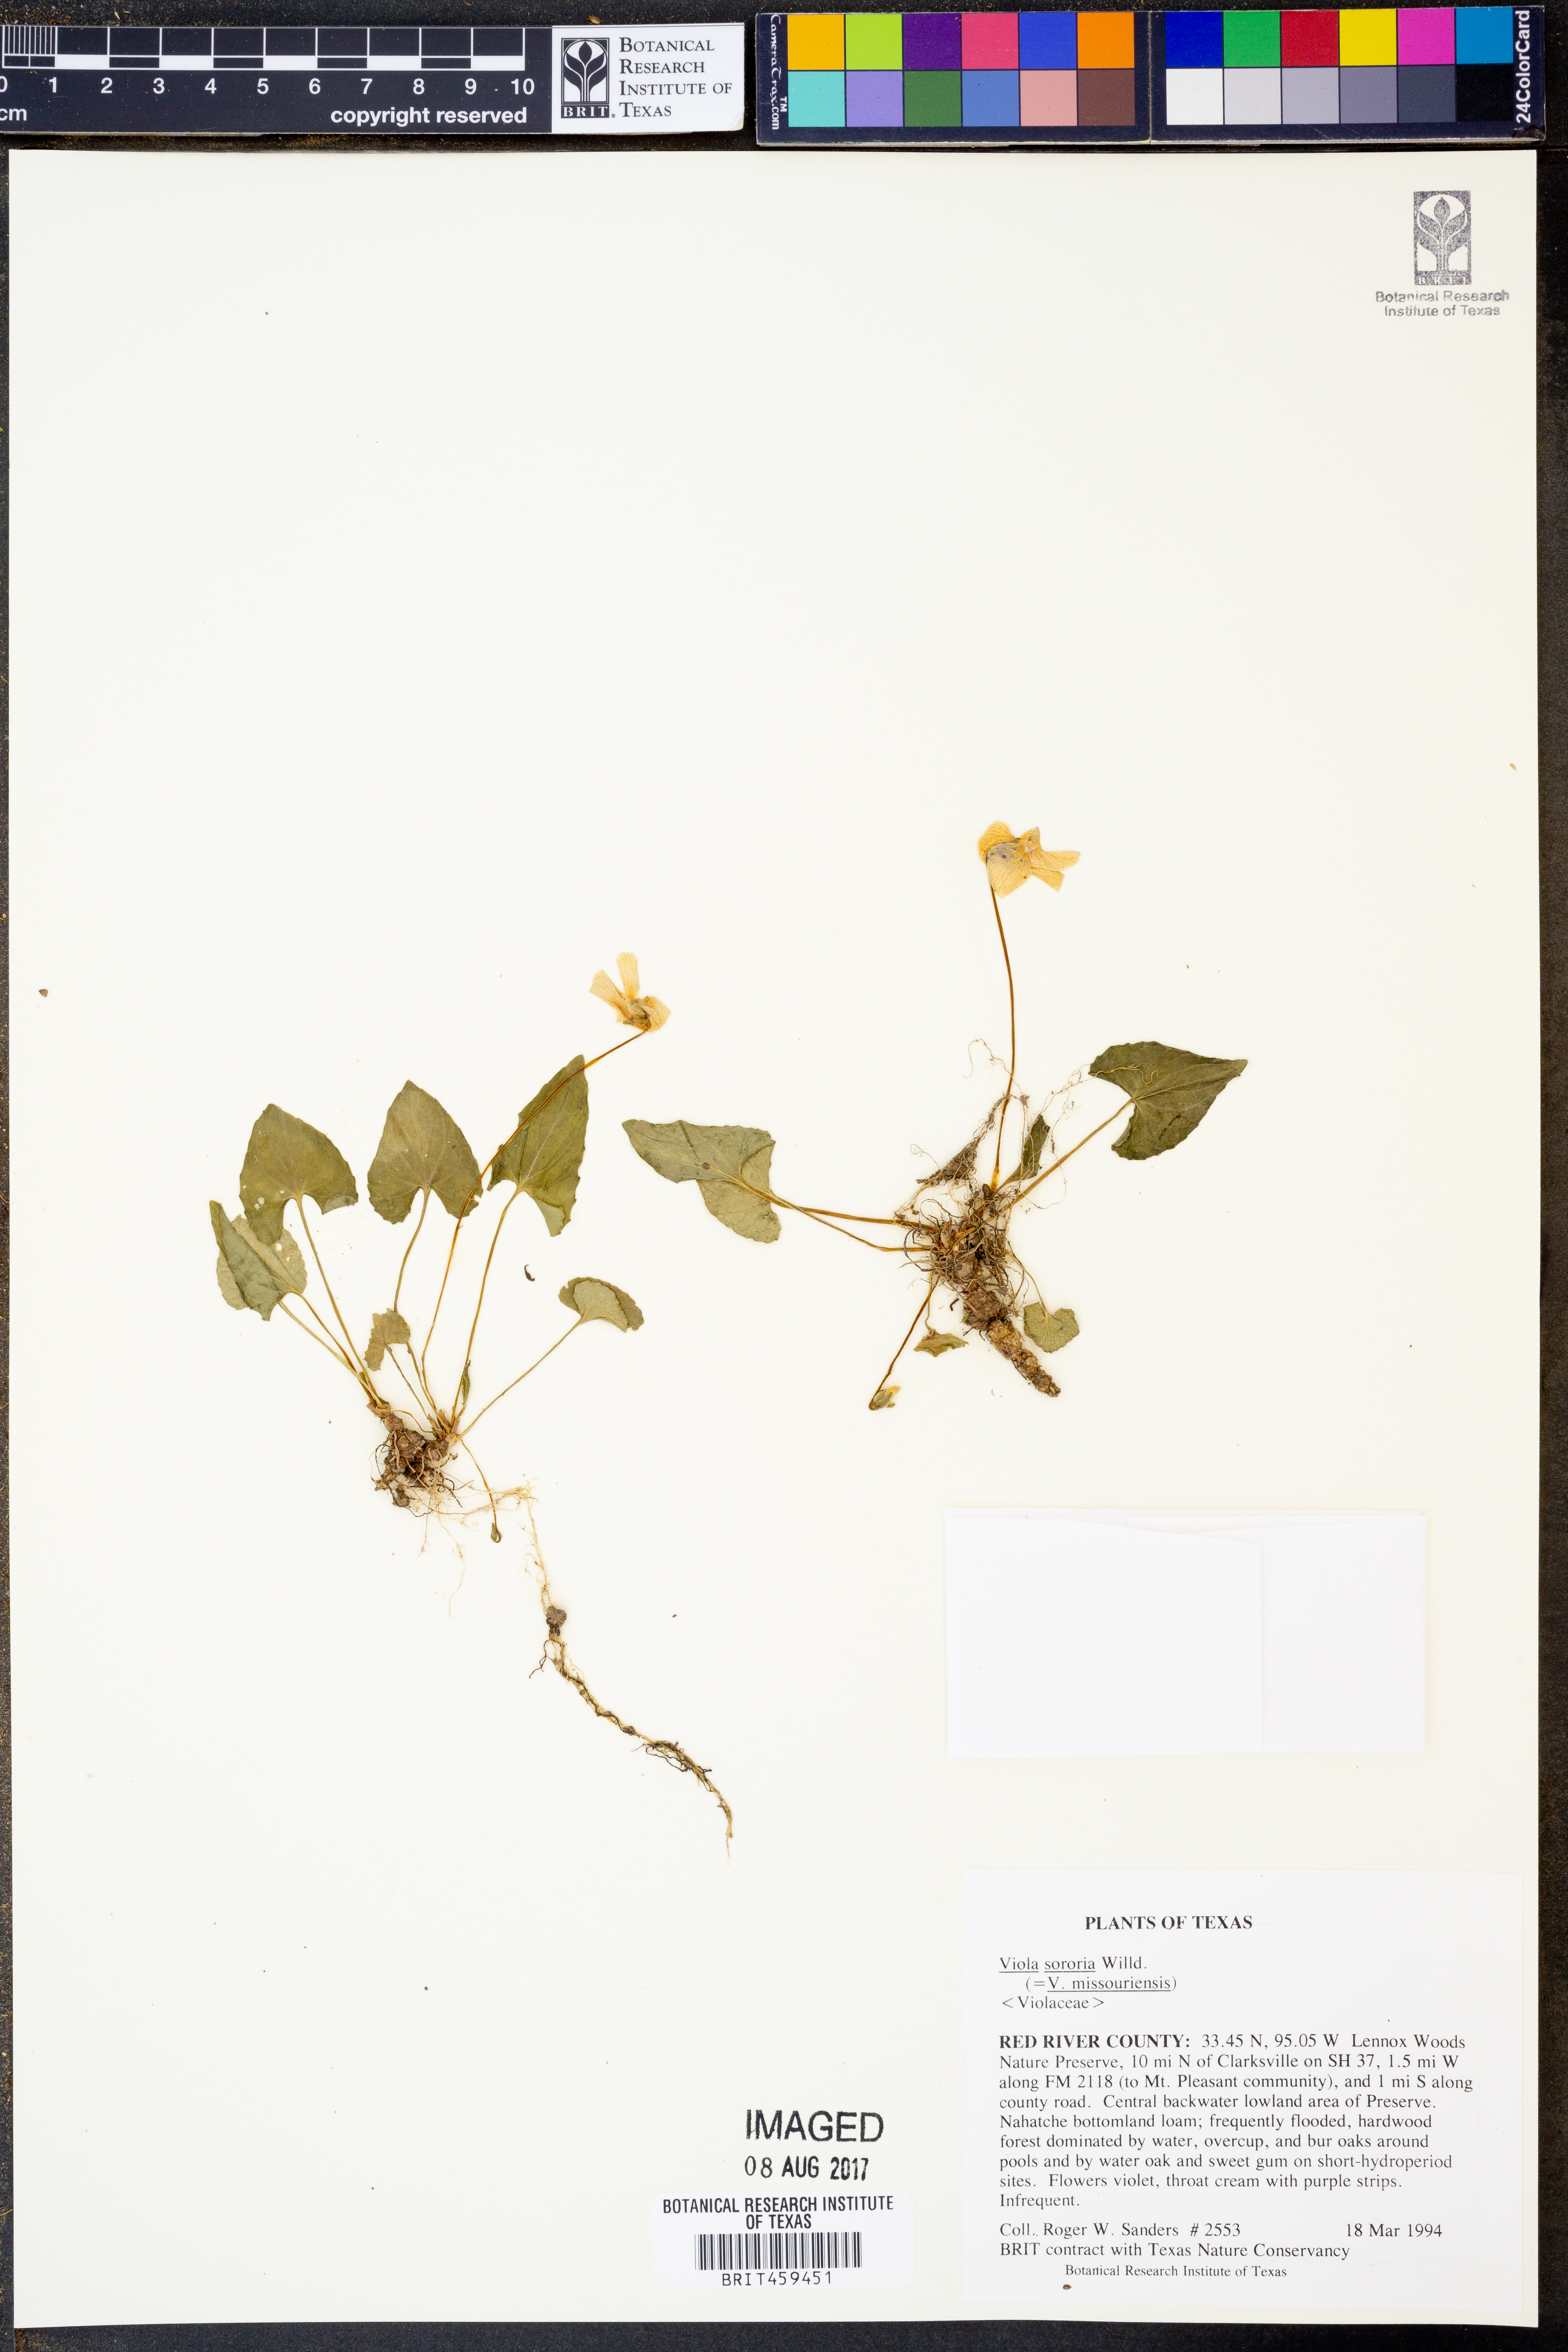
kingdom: Plantae
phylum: Tracheophyta
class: Magnoliopsida
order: Malpighiales
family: Violaceae
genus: Viola
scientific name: Viola sororia
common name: Dooryard violet
